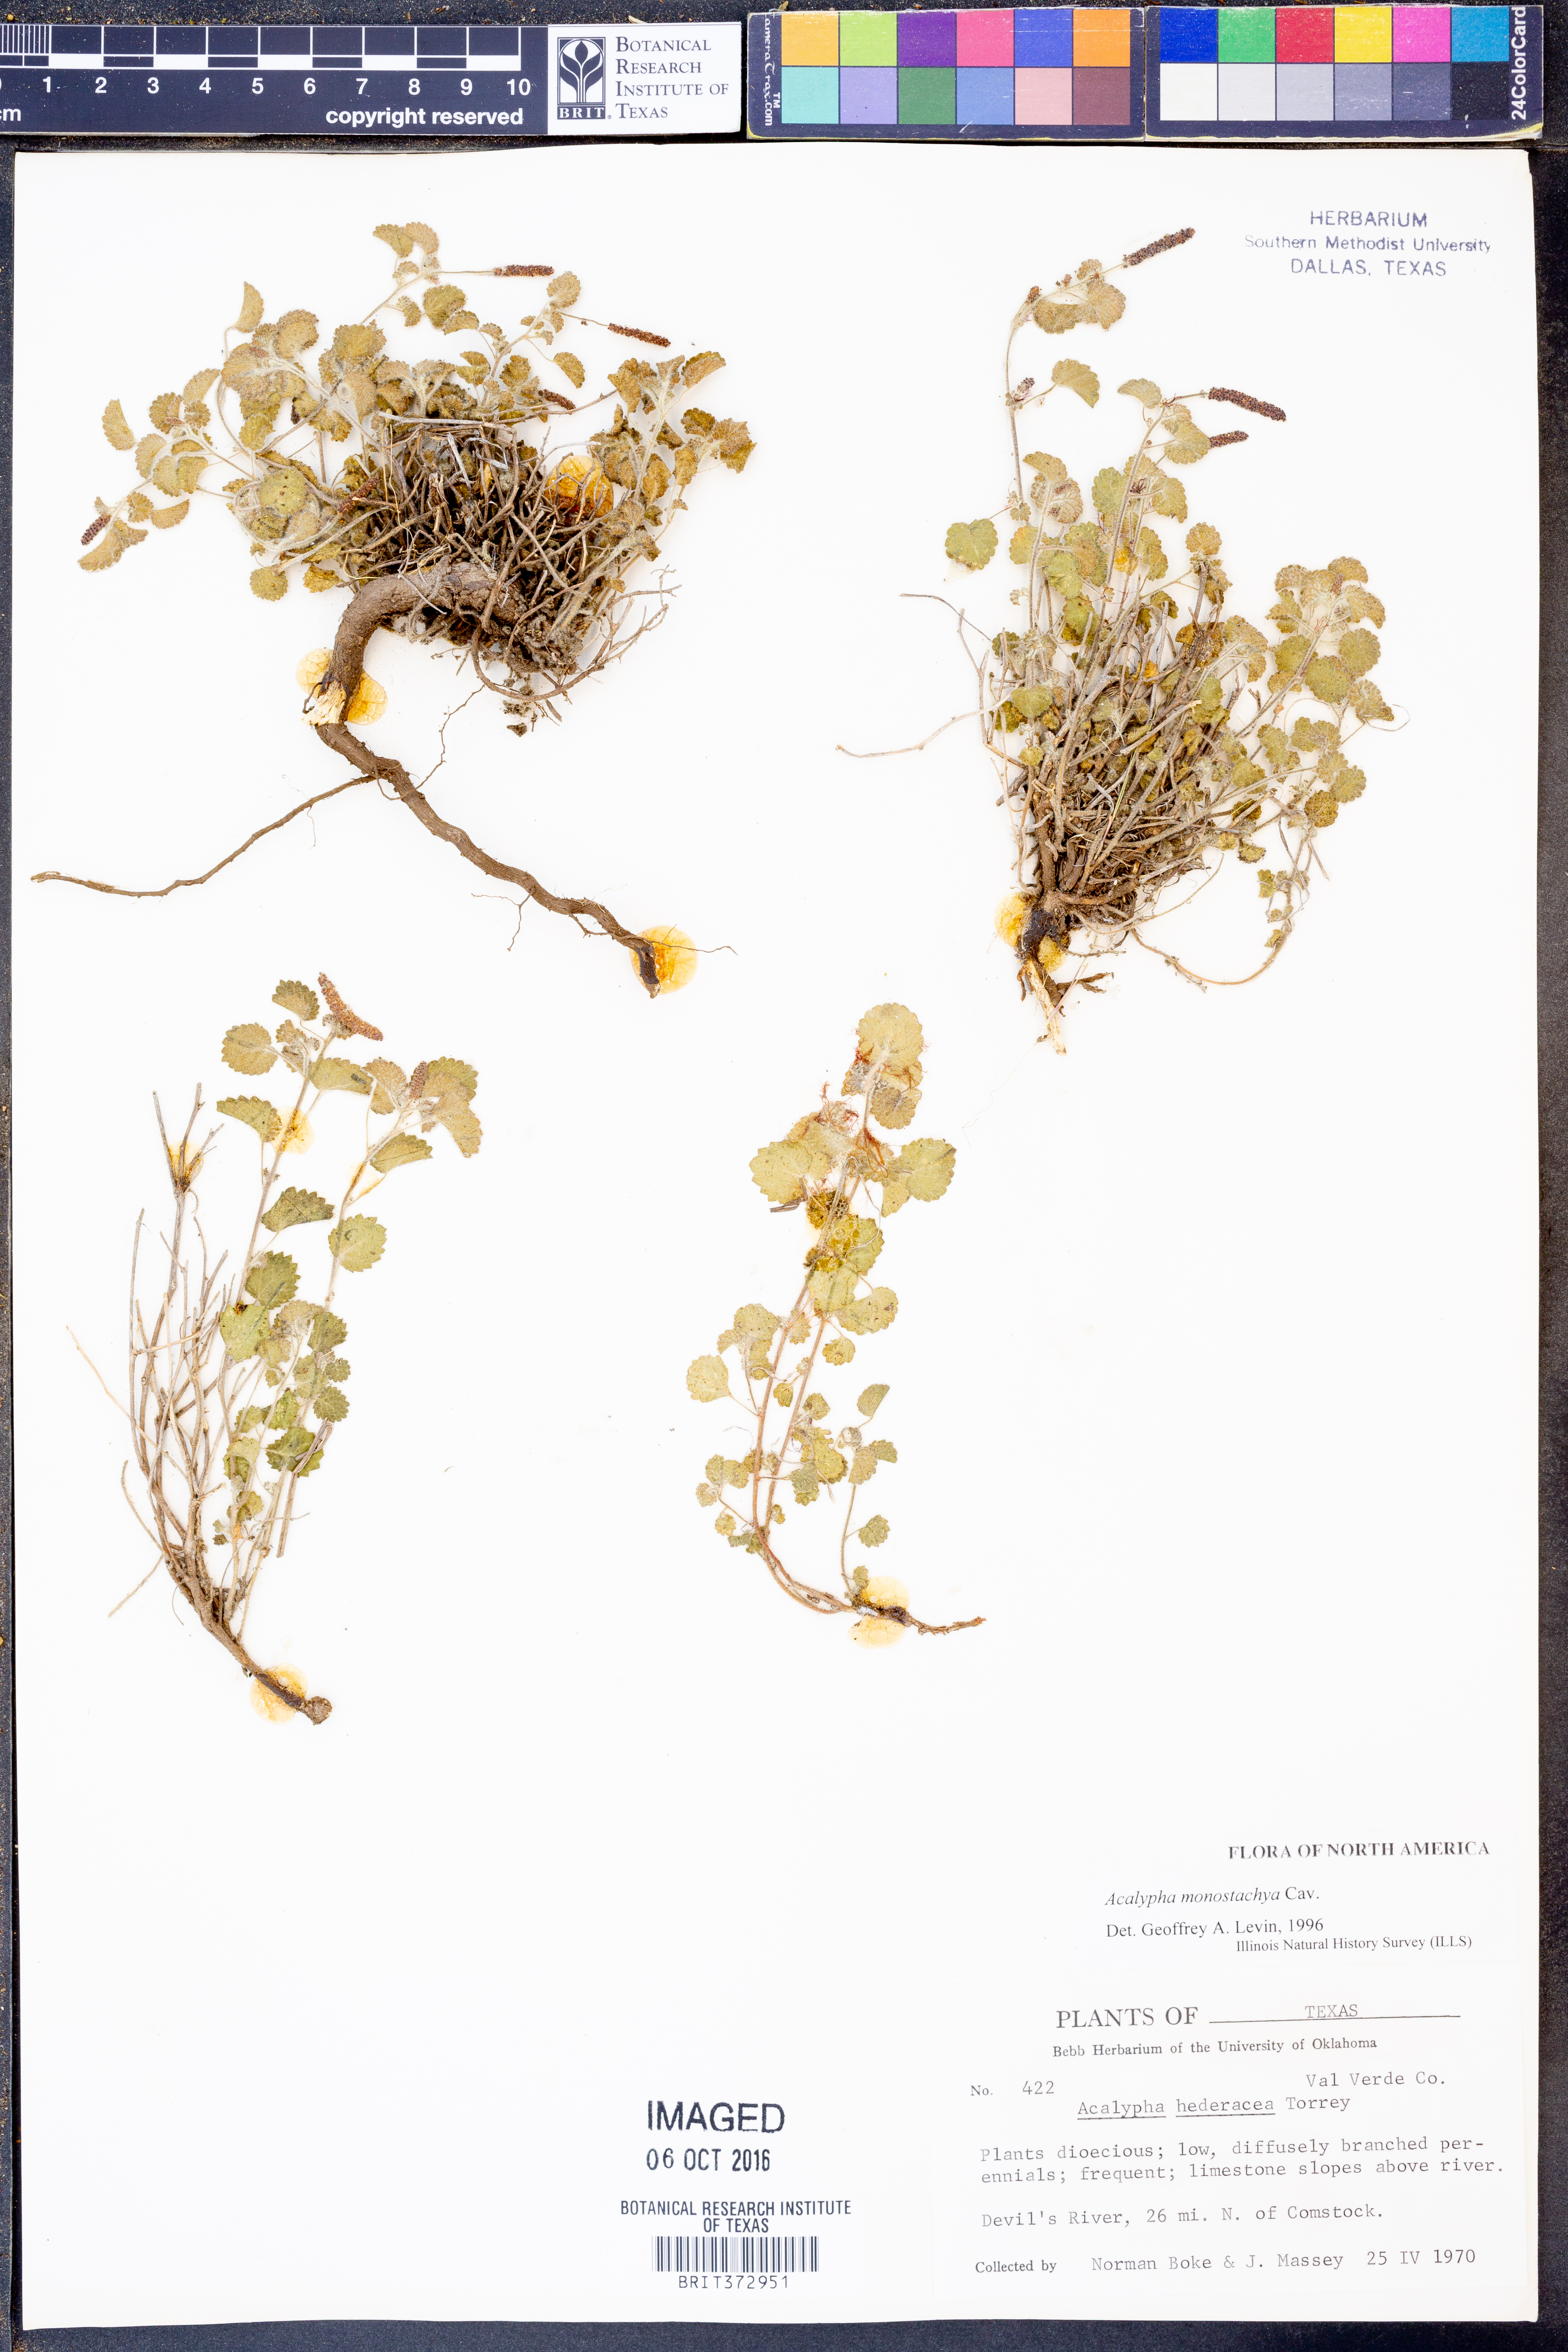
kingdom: Plantae
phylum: Tracheophyta
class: Magnoliopsida
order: Malpighiales
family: Euphorbiaceae
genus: Acalypha
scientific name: Acalypha monostachya
